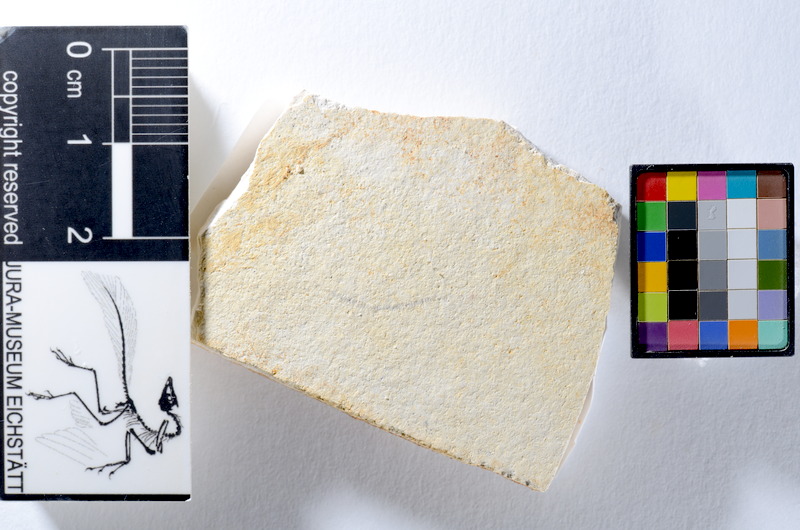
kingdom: Animalia
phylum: Chordata
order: Salmoniformes
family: Orthogonikleithridae
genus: Orthogonikleithrus
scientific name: Orthogonikleithrus hoelli
